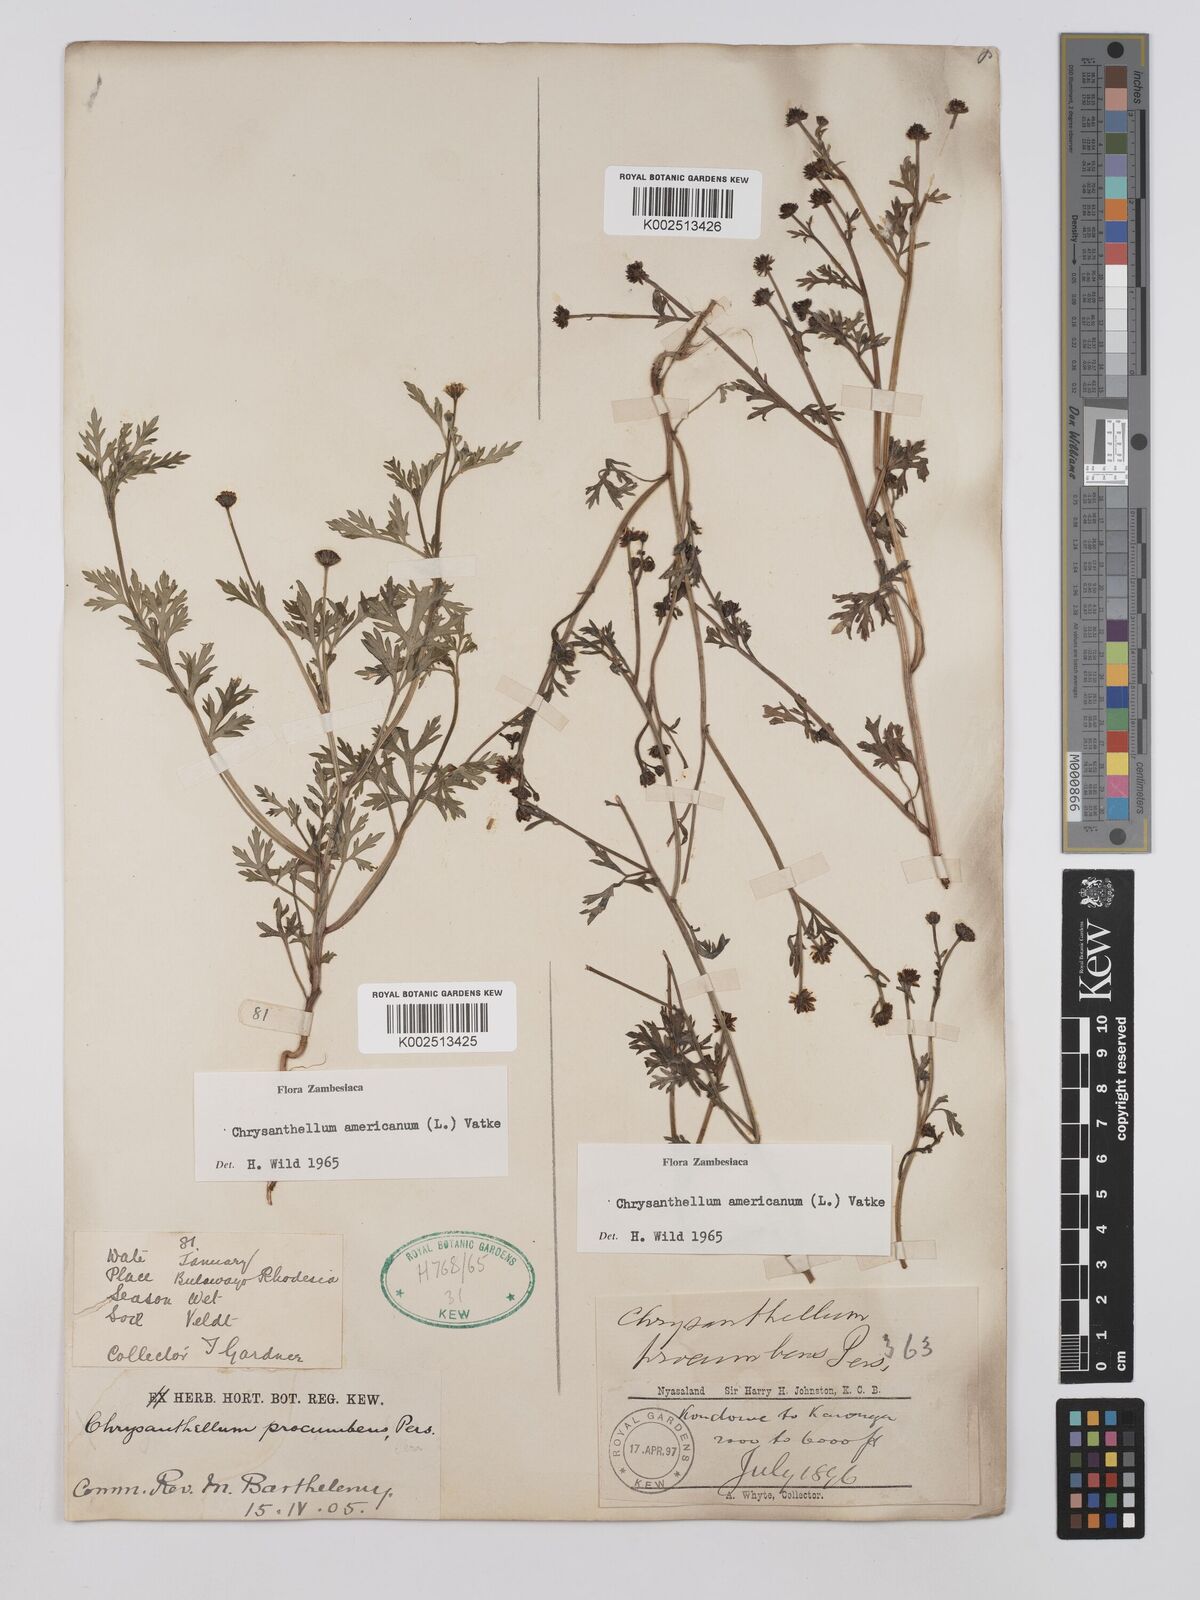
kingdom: Plantae
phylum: Tracheophyta
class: Magnoliopsida
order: Asterales
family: Asteraceae
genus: Chrysanthellum
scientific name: Chrysanthellum indicum
